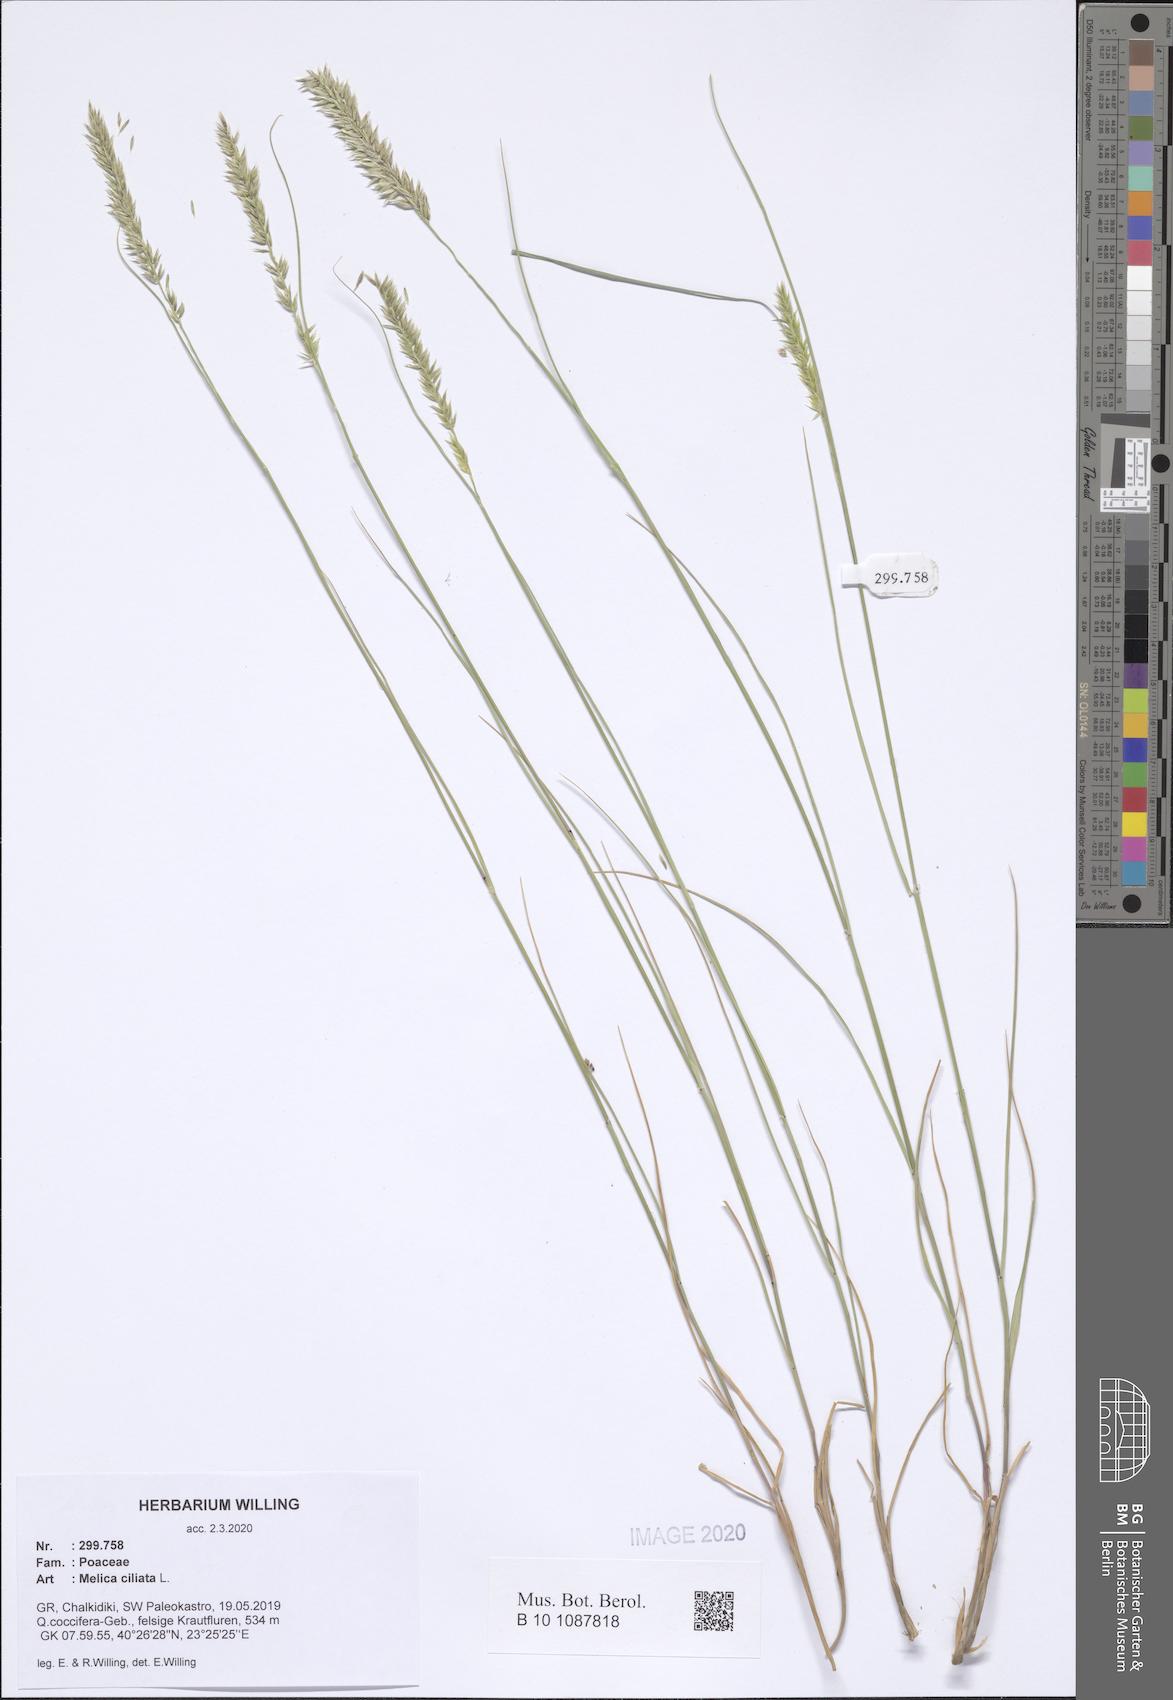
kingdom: Plantae
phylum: Tracheophyta
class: Liliopsida
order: Poales
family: Poaceae
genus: Melica
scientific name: Melica ciliata
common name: Hairy melicgrass
